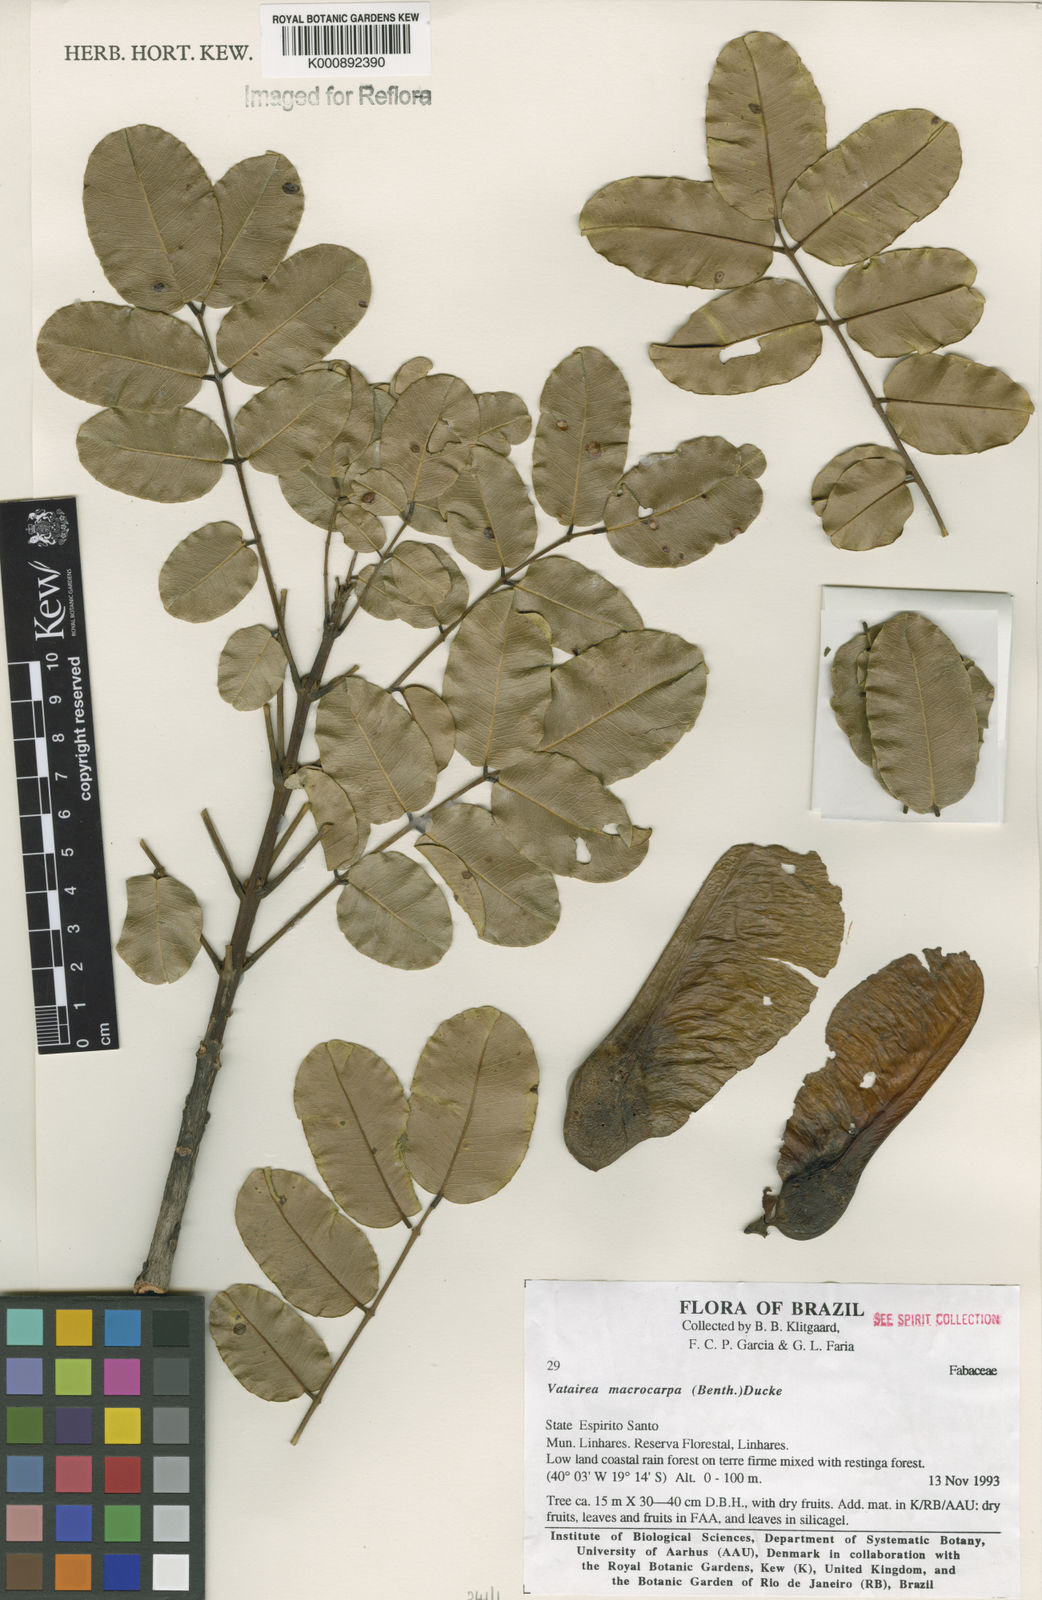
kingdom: Plantae
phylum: Tracheophyta
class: Magnoliopsida
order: Fabales
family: Fabaceae
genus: Vatairea
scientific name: Vatairea macrocarpa
